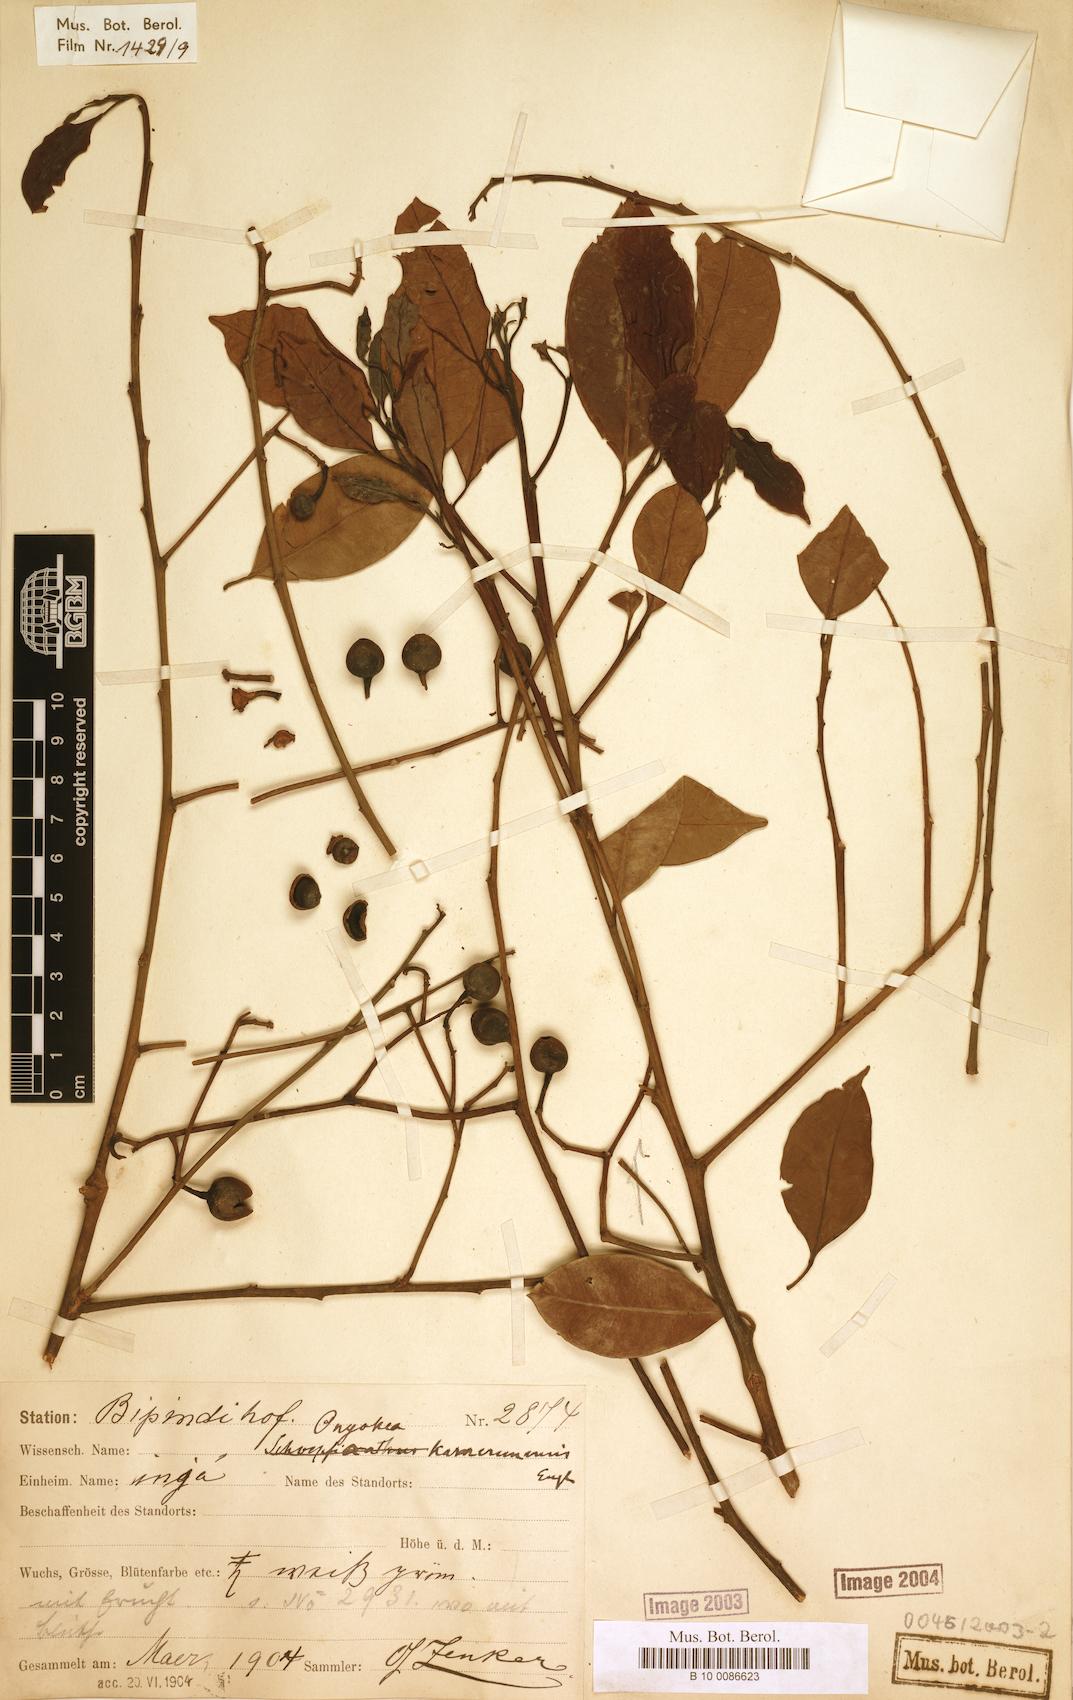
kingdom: Plantae
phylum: Tracheophyta
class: Magnoliopsida
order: Santalales
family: Aptandraceae
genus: Ongokea
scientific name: Ongokea gore
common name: Boleko-nut
